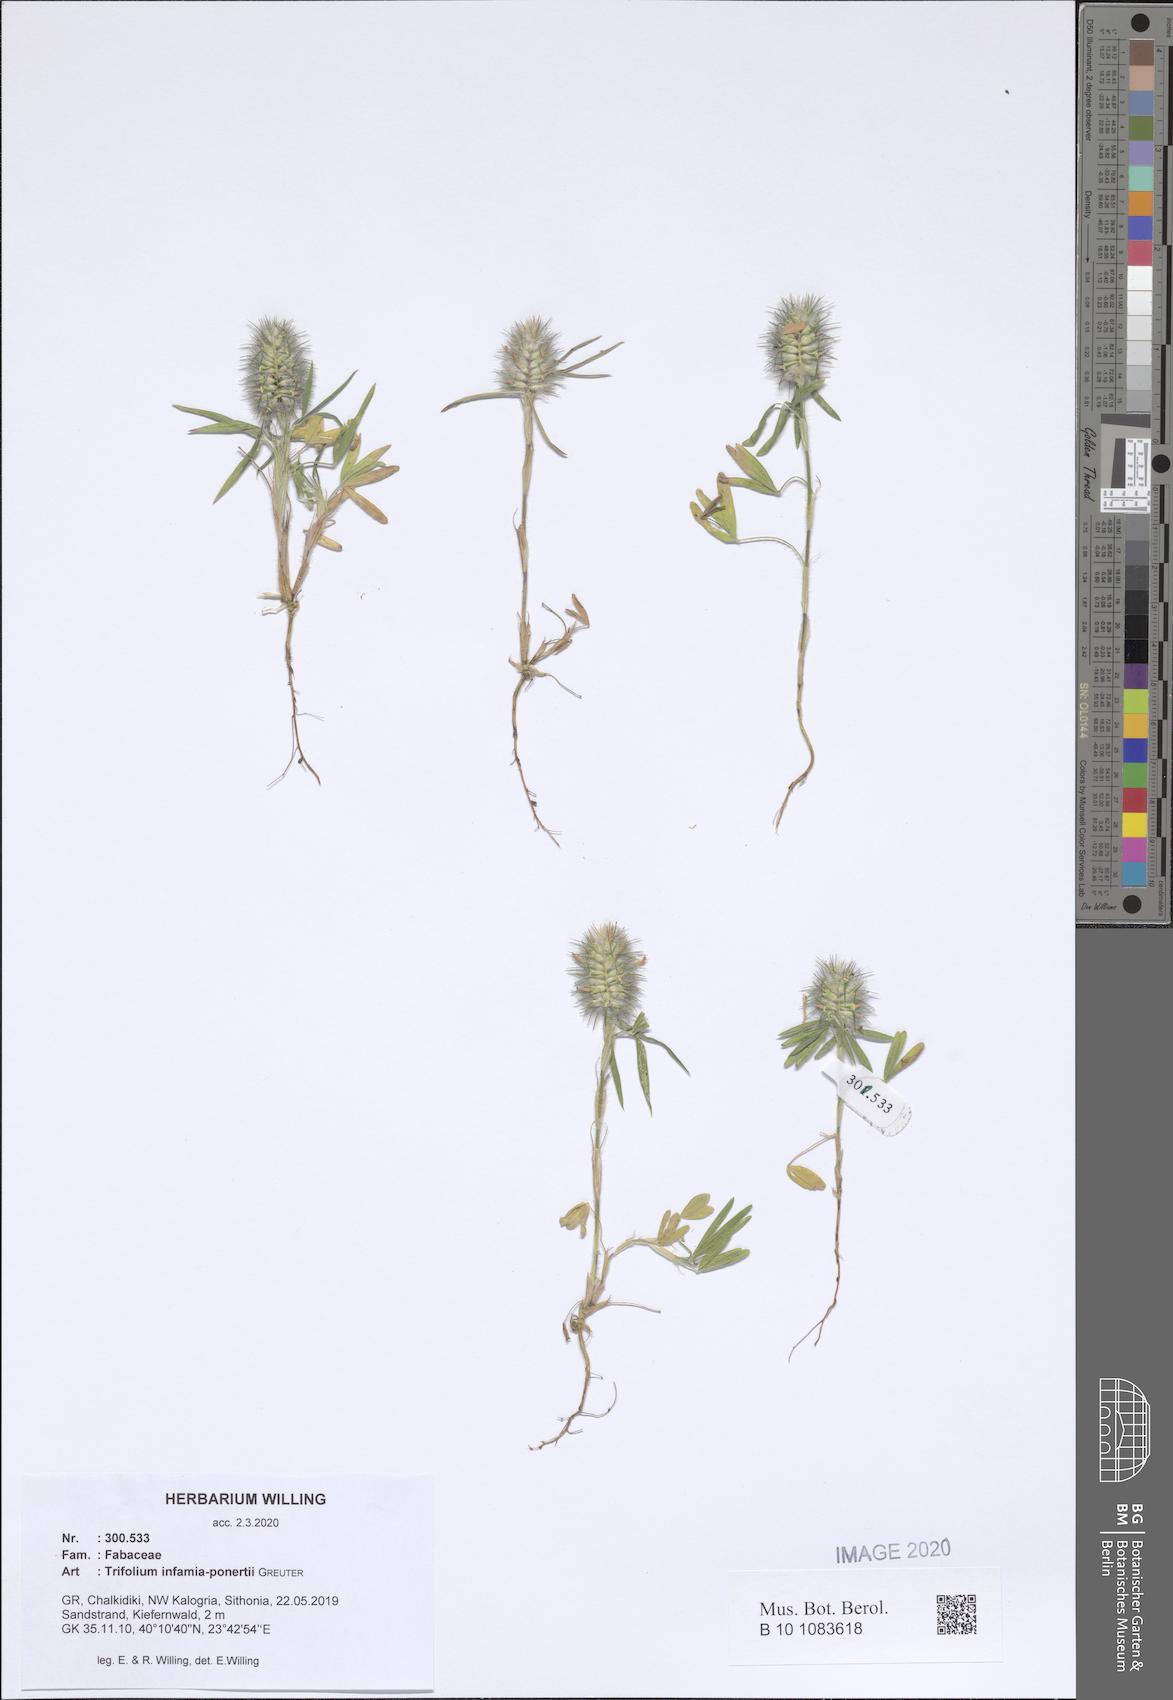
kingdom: Plantae
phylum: Tracheophyta
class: Magnoliopsida
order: Fabales
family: Fabaceae
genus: Trifolium
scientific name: Trifolium infamia-ponertii
